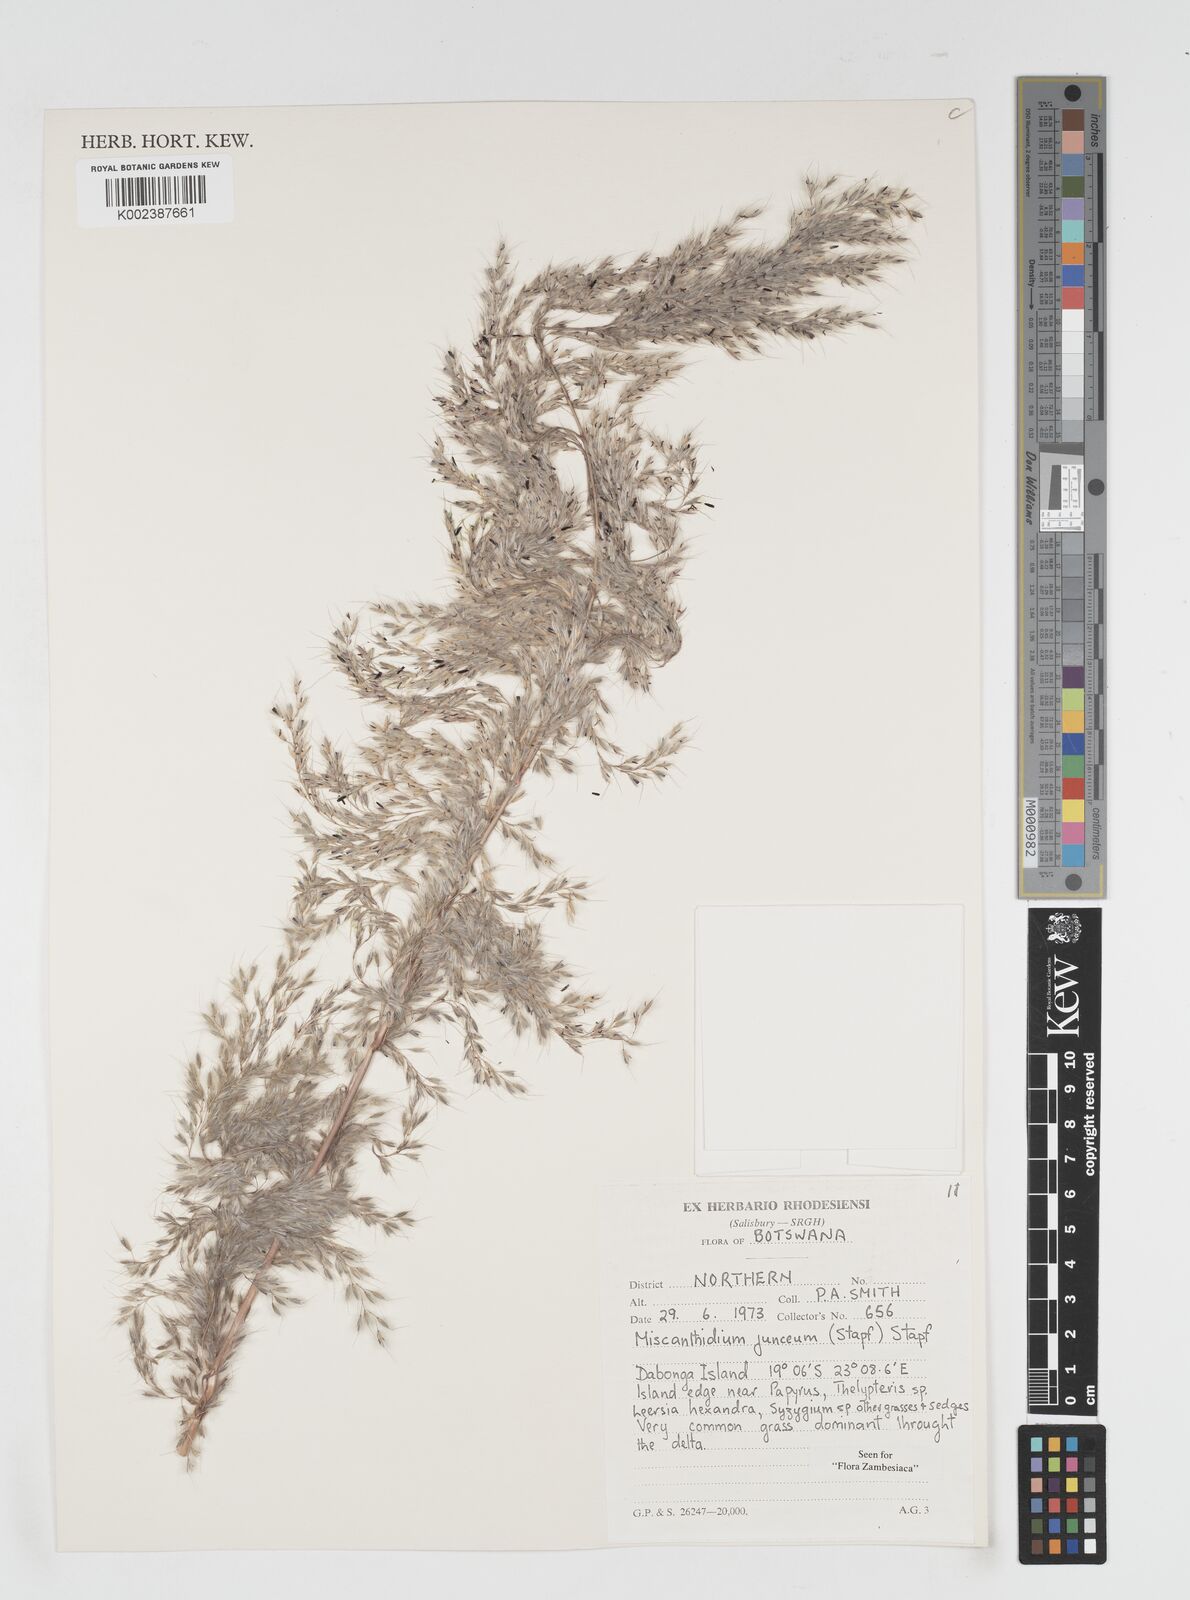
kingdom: Plantae
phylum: Tracheophyta
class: Liliopsida
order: Poales
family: Poaceae
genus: Miscanthidium
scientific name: Miscanthidium junceum
